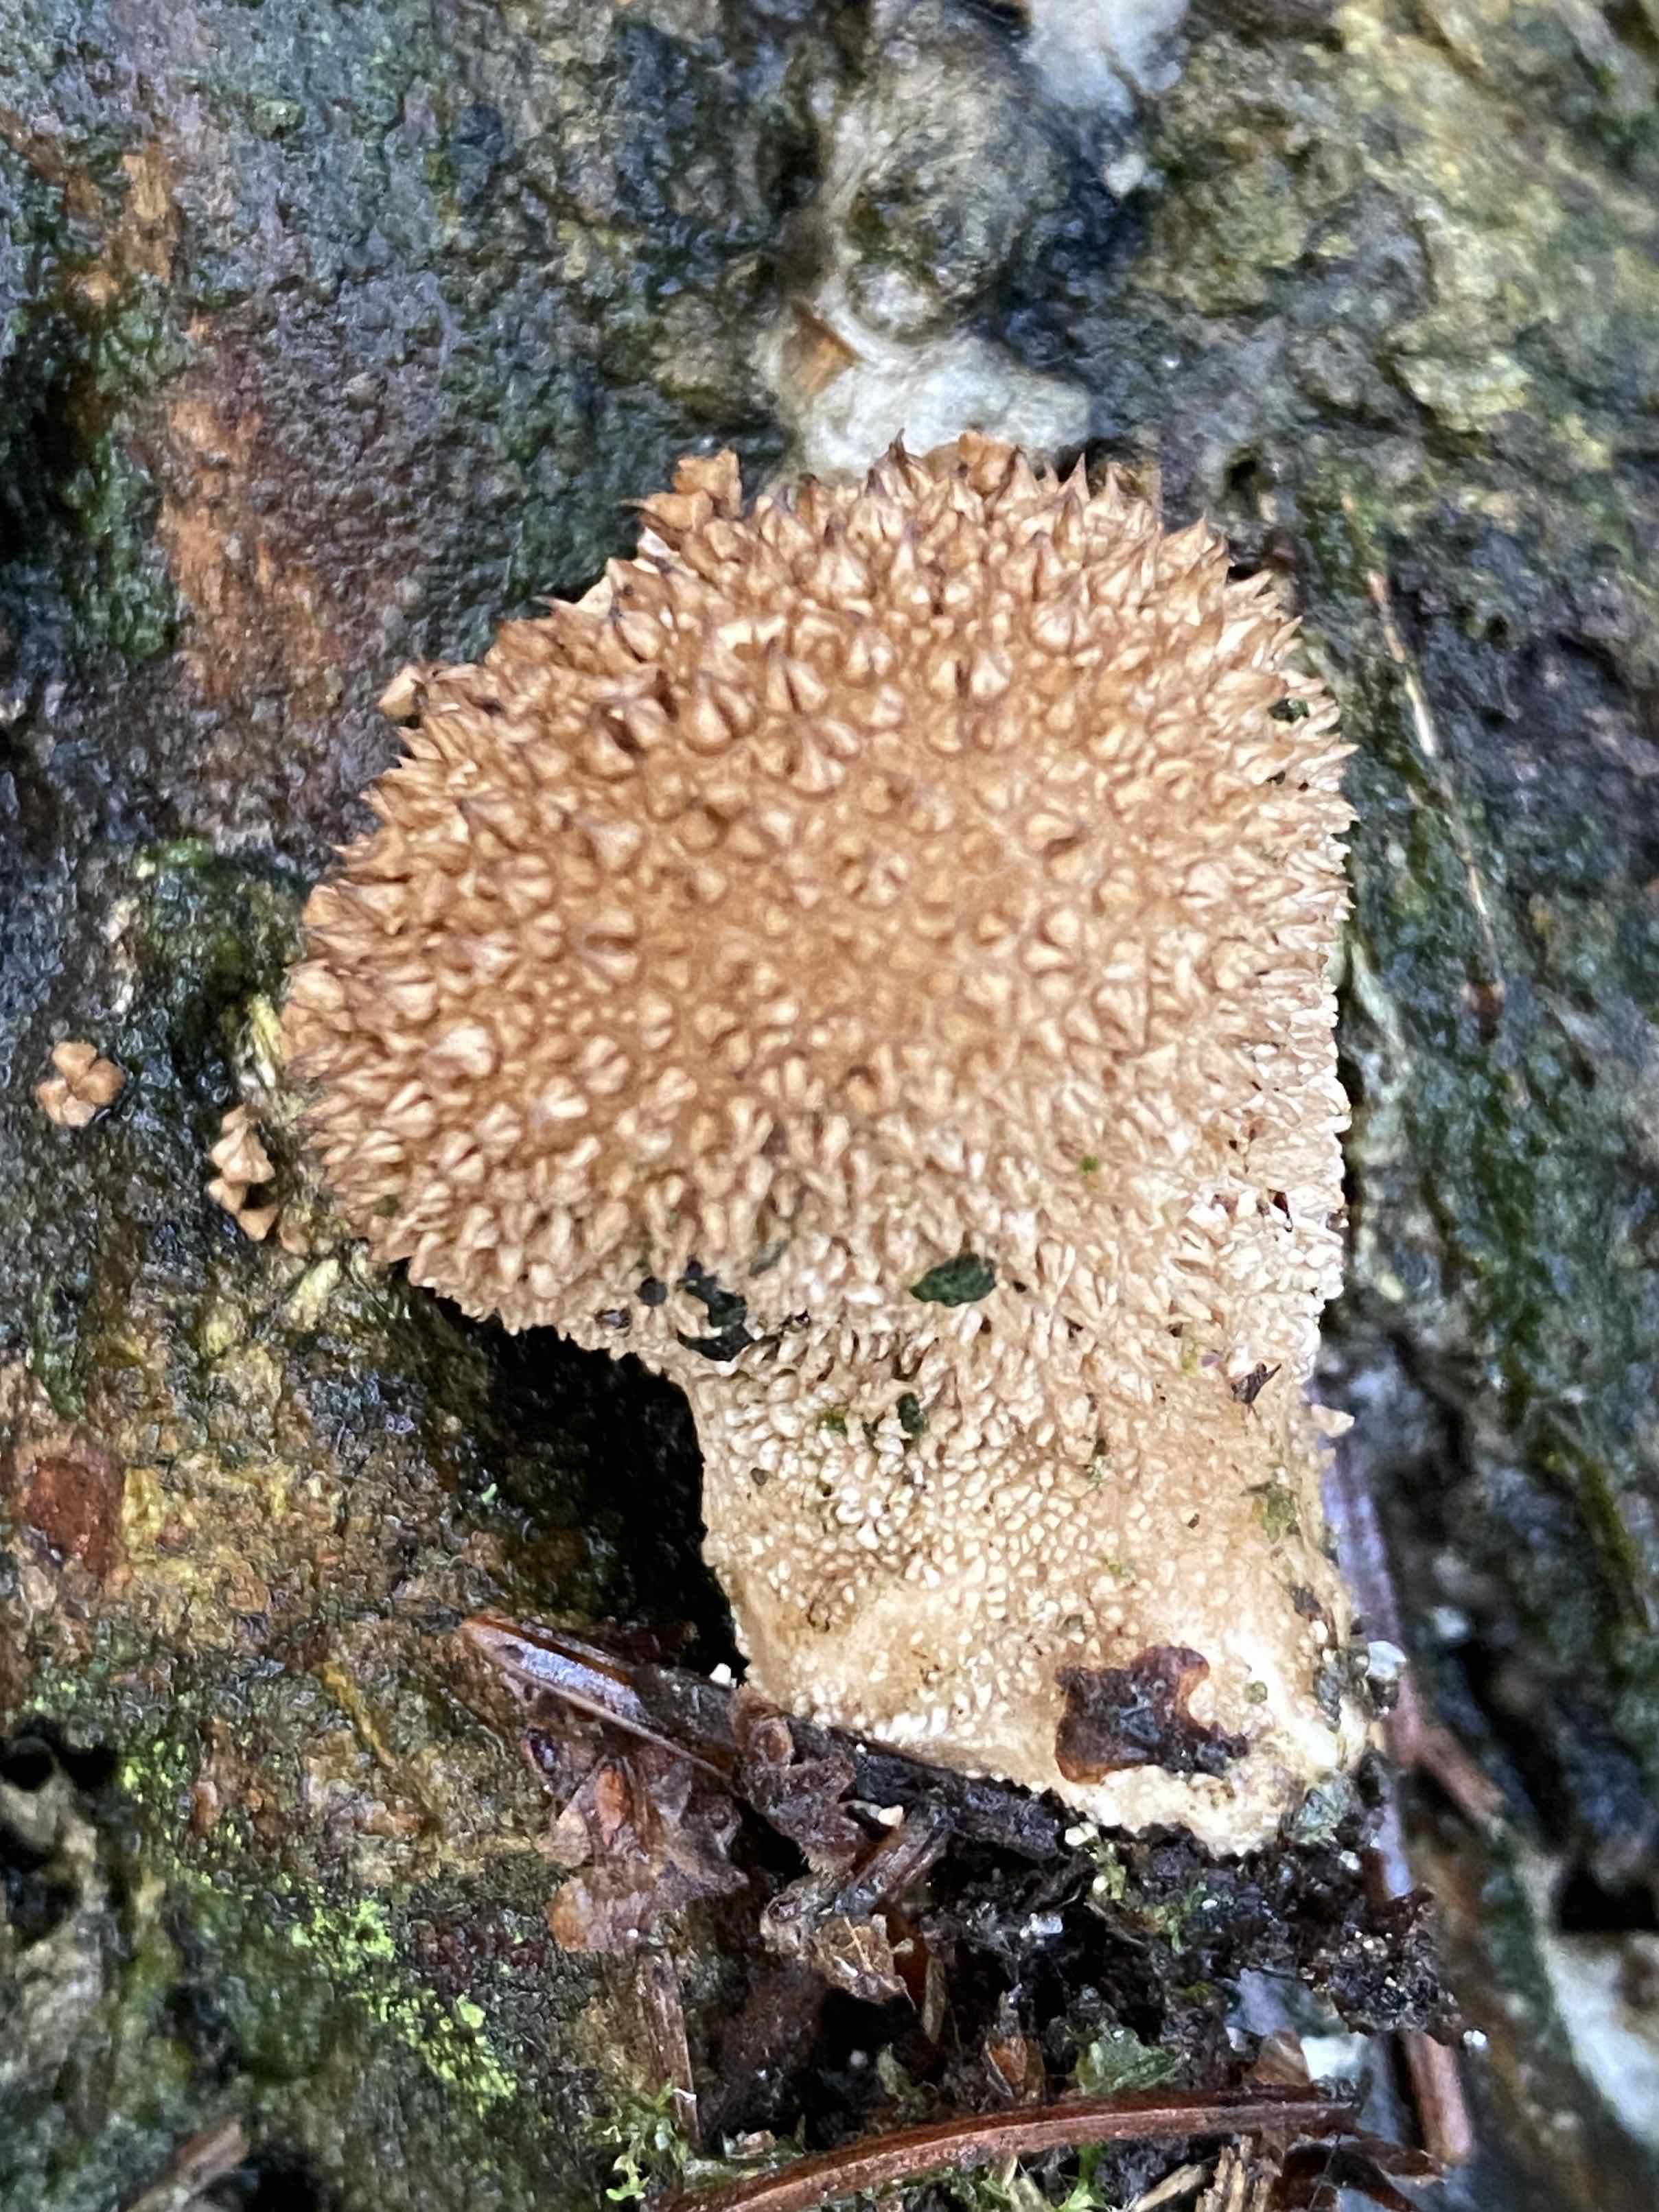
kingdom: Fungi
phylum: Basidiomycota
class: Agaricomycetes
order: Agaricales
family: Lycoperdaceae
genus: Lycoperdon
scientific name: Lycoperdon nigrescens
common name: sortagtig støvbold
